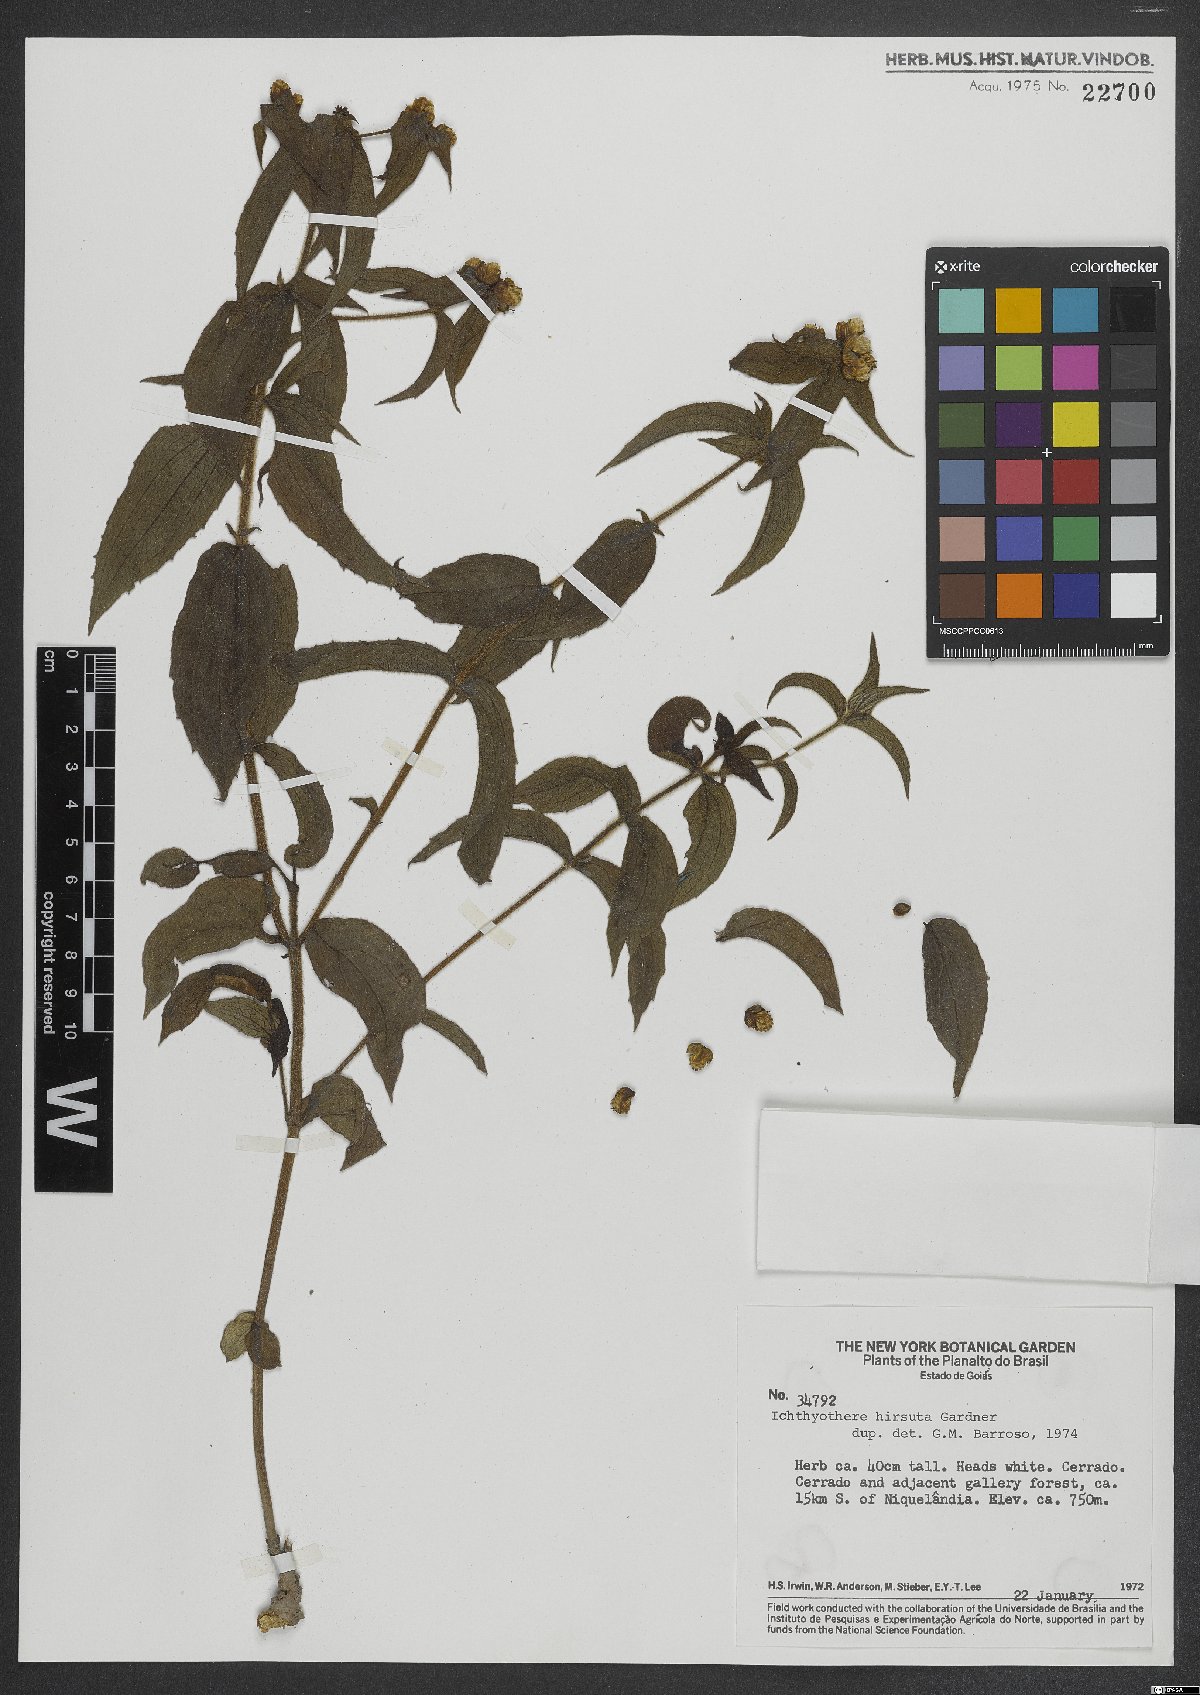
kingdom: Plantae
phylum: Tracheophyta
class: Magnoliopsida
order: Asterales
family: Asteraceae
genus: Ichthyothere
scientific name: Ichthyothere hirsuta
